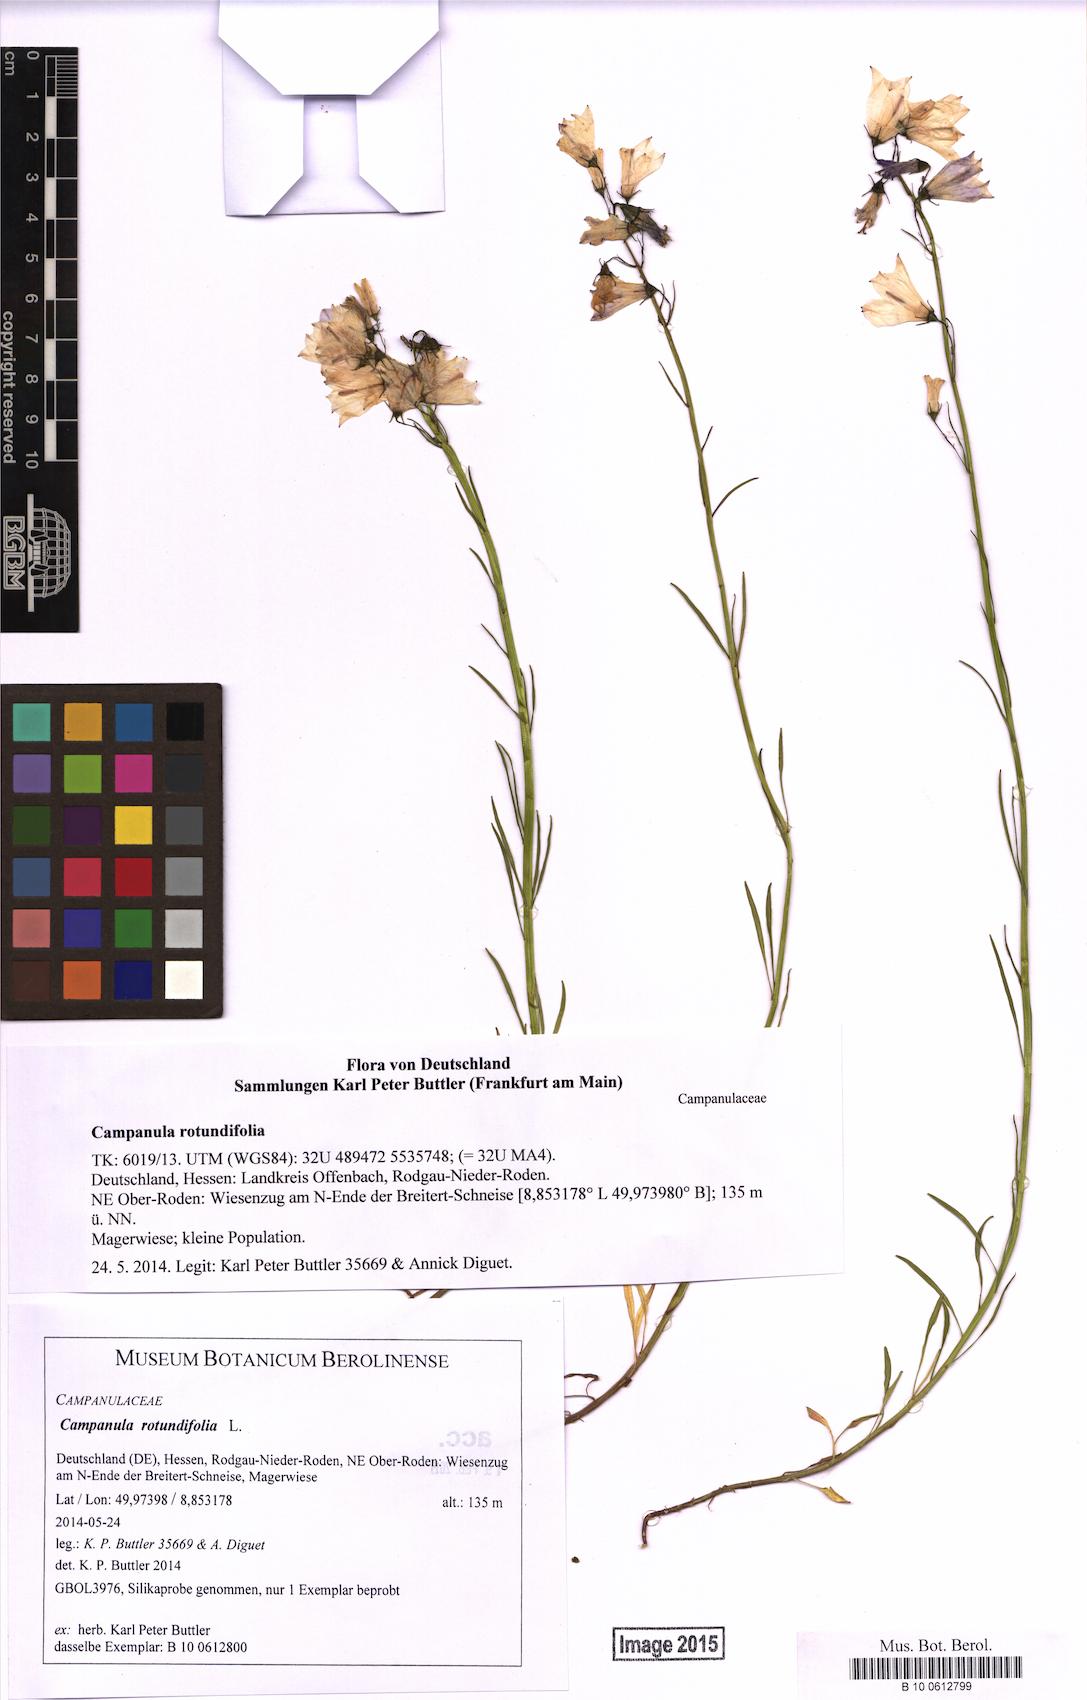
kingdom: Plantae
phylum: Tracheophyta
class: Magnoliopsida
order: Asterales
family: Campanulaceae
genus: Campanula
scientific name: Campanula rotundifolia
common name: Harebell
